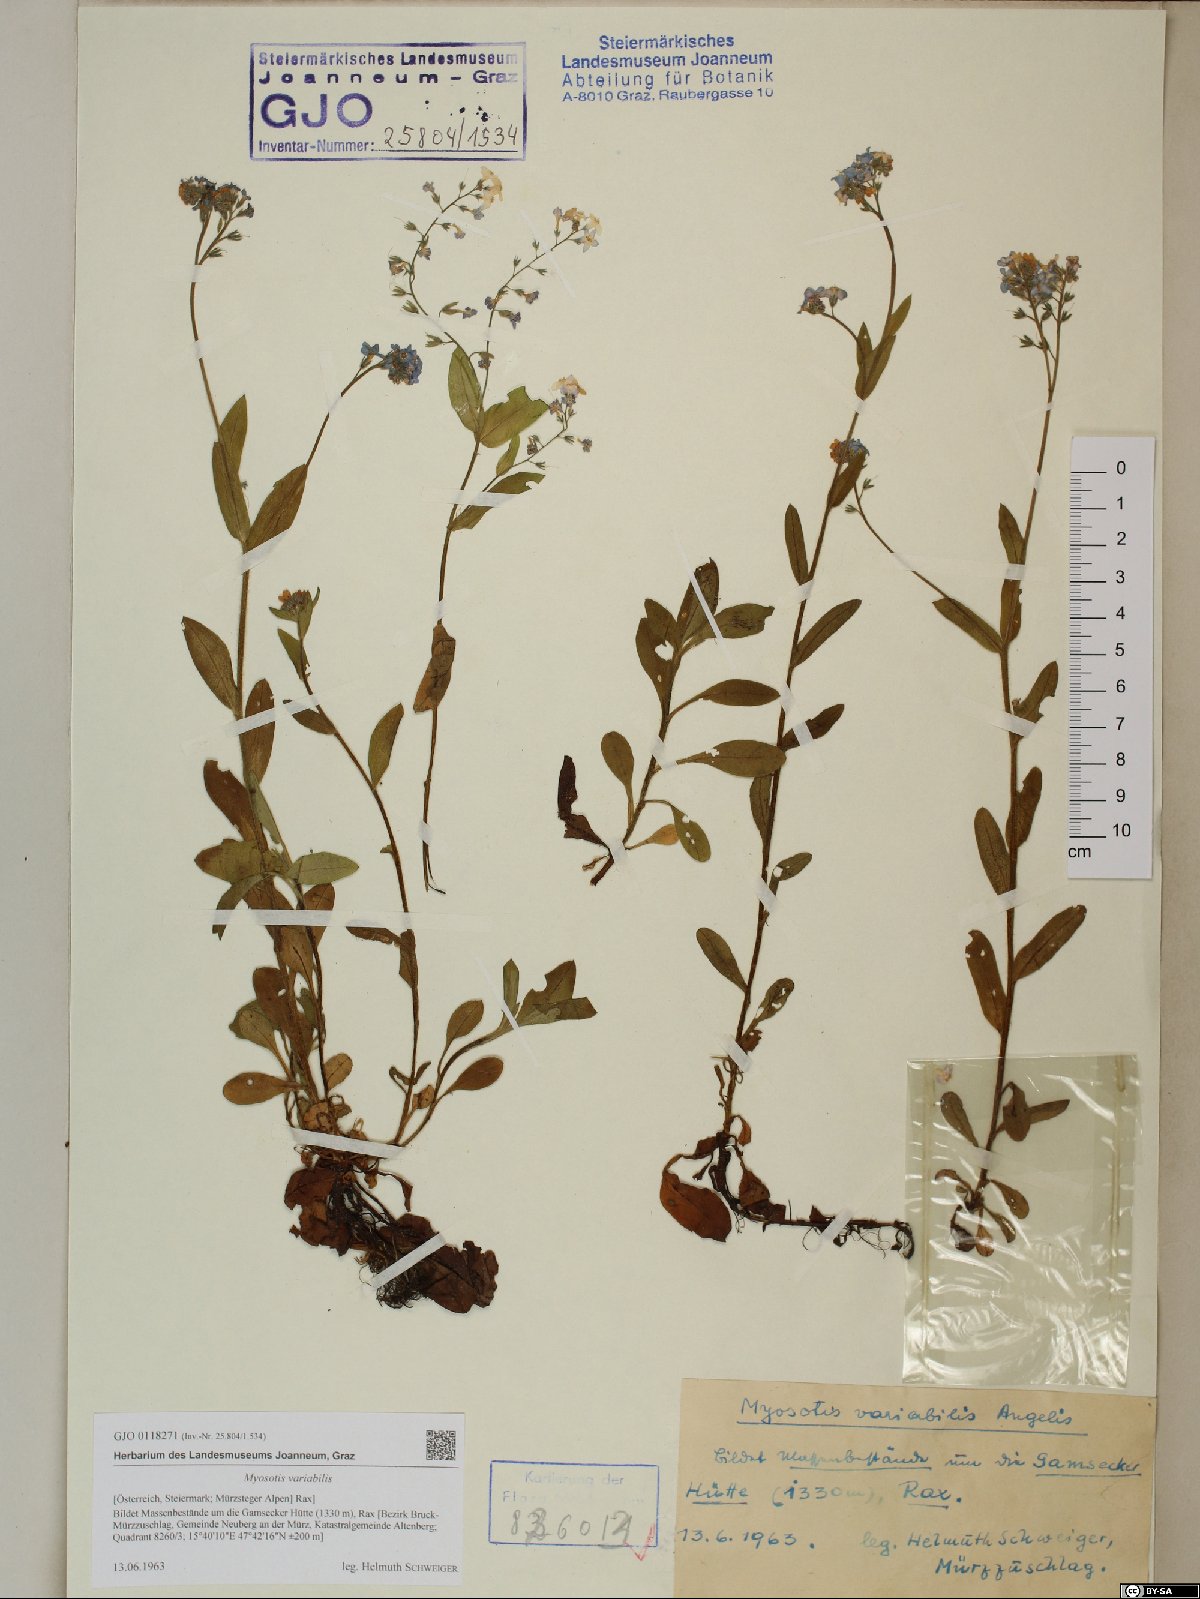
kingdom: Plantae
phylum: Tracheophyta
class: Magnoliopsida
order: Boraginales
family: Boraginaceae
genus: Myosotis
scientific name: Myosotis decumbens
